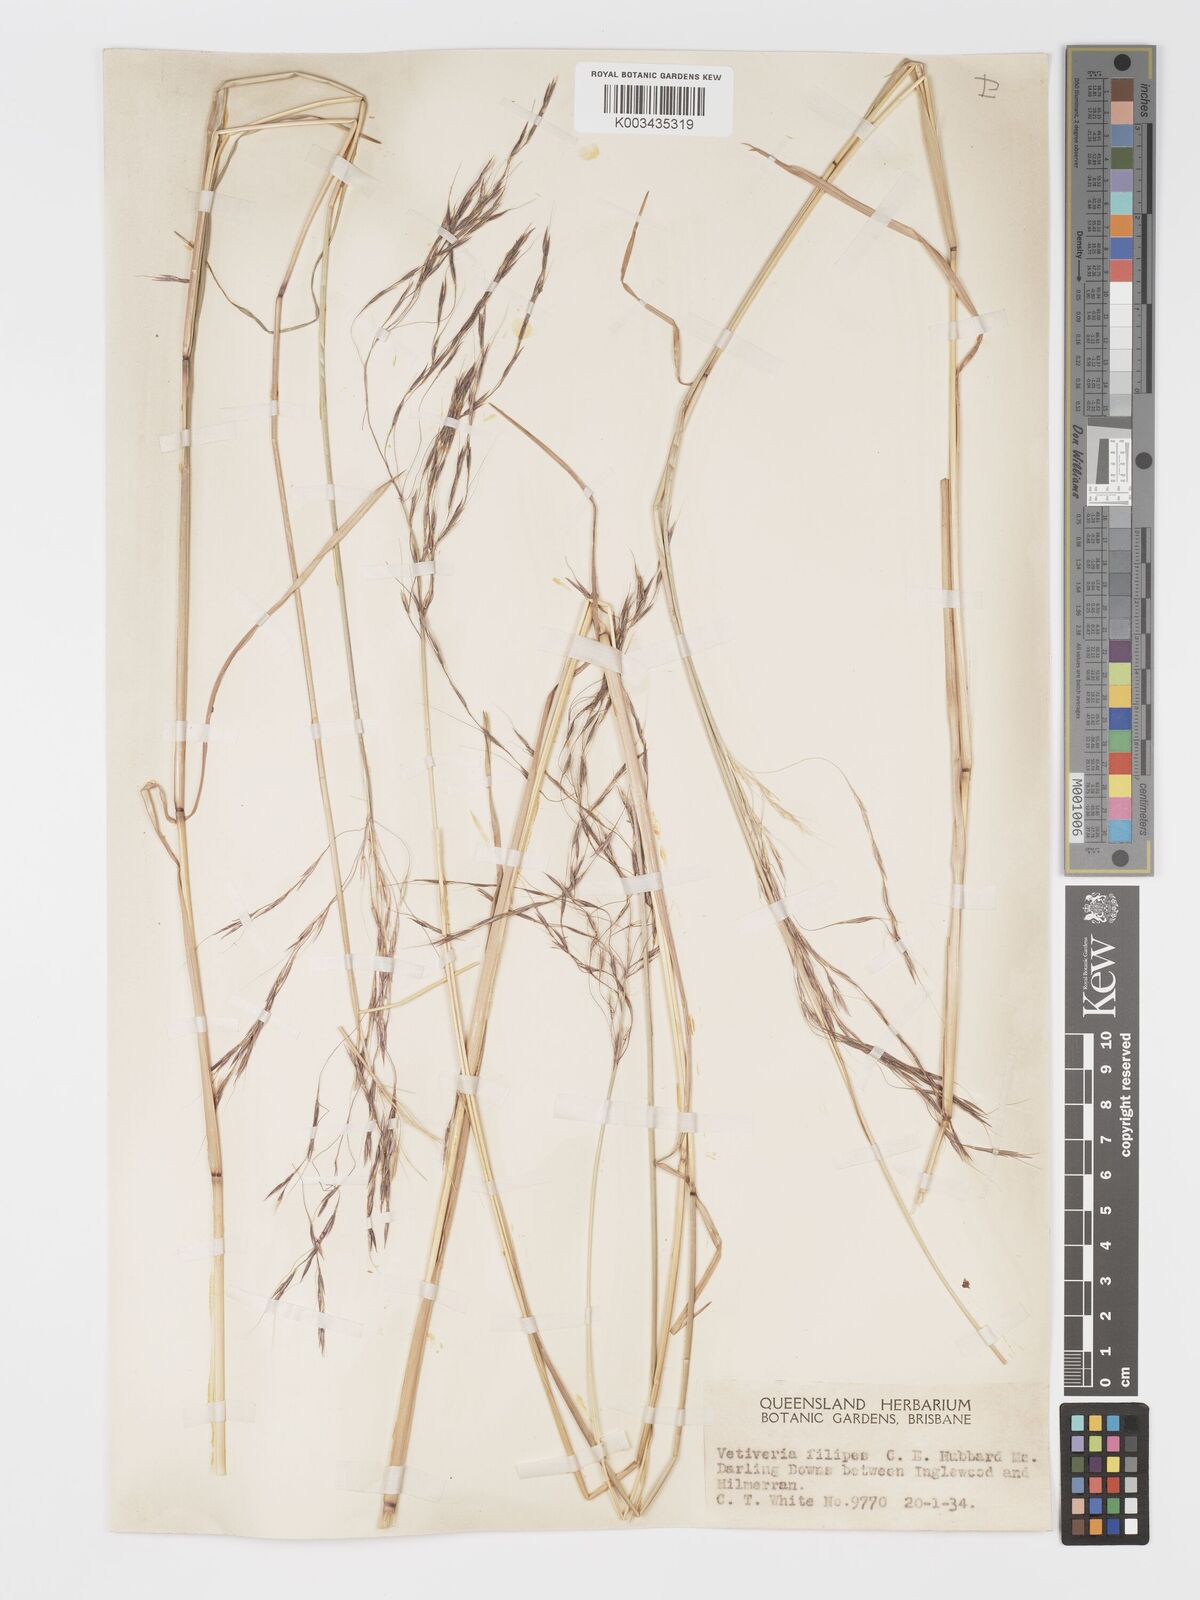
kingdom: Plantae
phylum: Tracheophyta
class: Liliopsida
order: Poales
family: Poaceae
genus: Chrysopogon
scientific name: Chrysopogon filipes
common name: Australian vetiver
